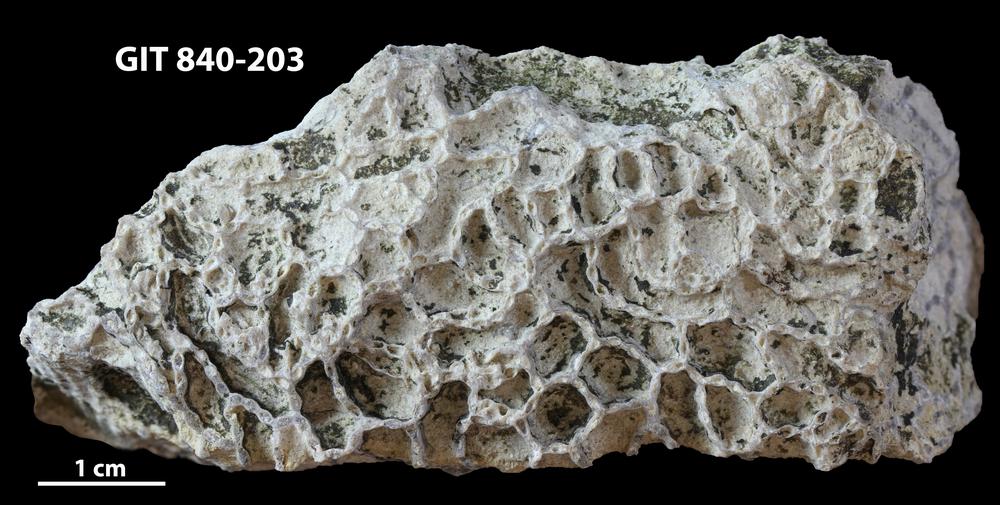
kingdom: Animalia
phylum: Cnidaria
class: Anthozoa
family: Cateniporidae
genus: Catenipora
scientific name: Catenipora
